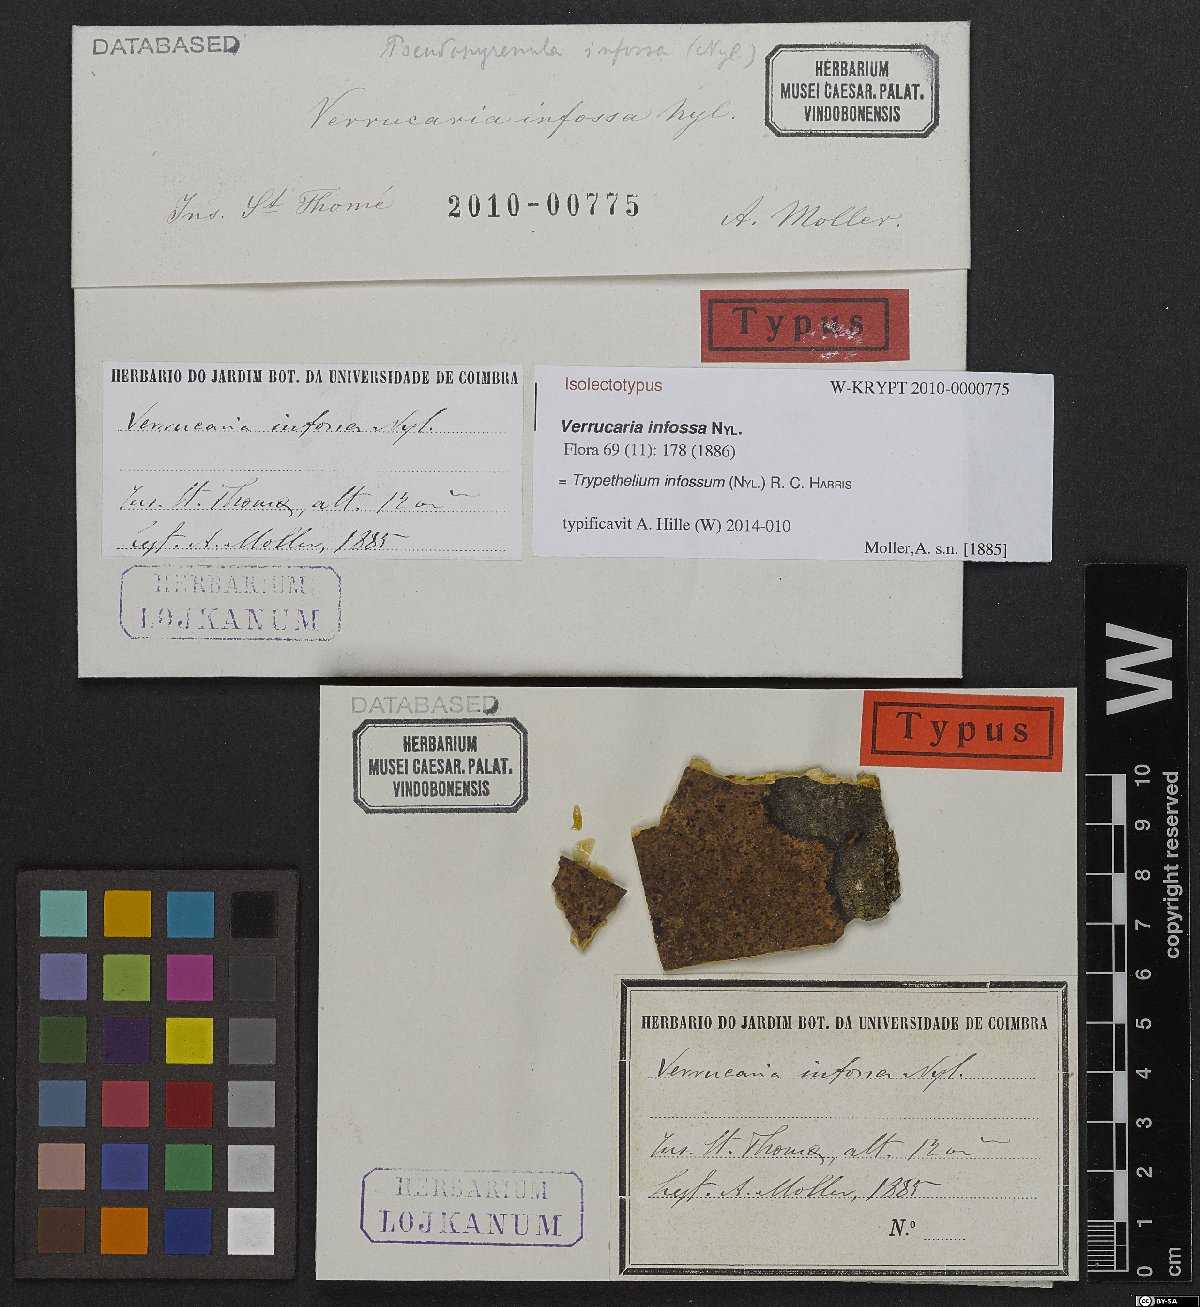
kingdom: Fungi
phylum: Ascomycota
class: Dothideomycetes
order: Trypetheliales
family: Trypetheliaceae
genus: Astrothelium
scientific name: Astrothelium infossum
